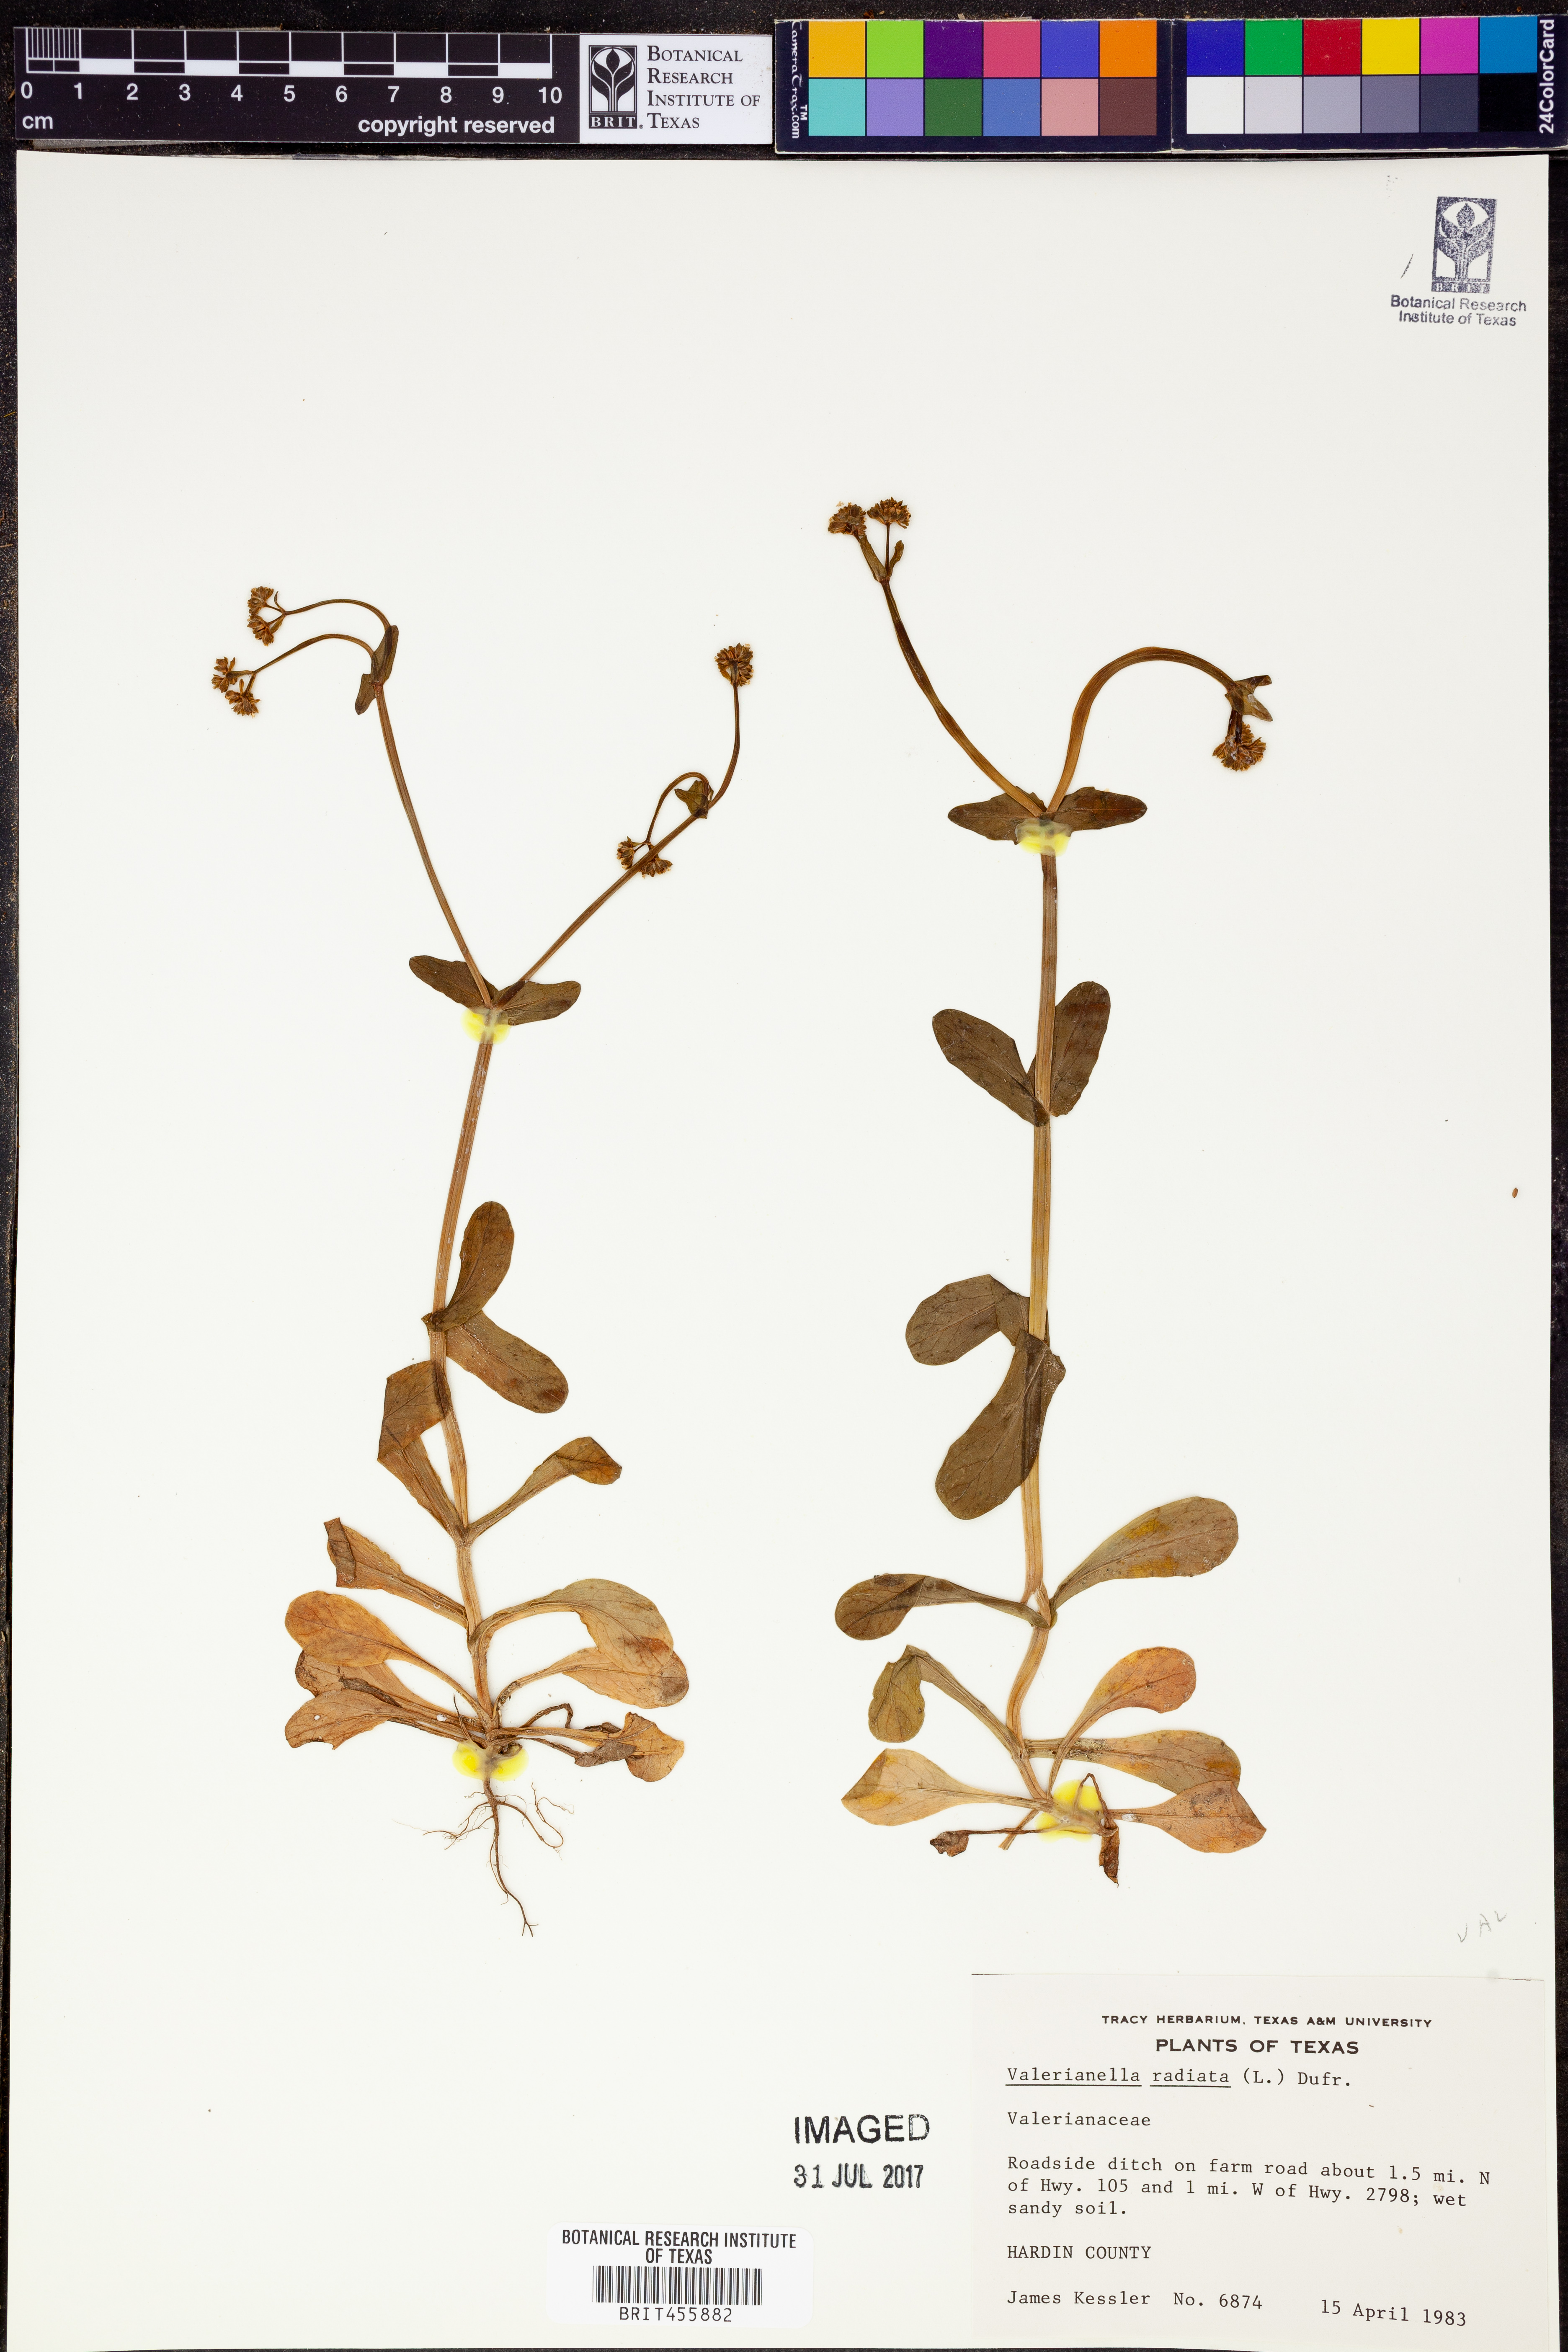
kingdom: Plantae
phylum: Tracheophyta
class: Magnoliopsida
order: Dipsacales
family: Caprifoliaceae
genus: Valerianella
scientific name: Valerianella radiata
